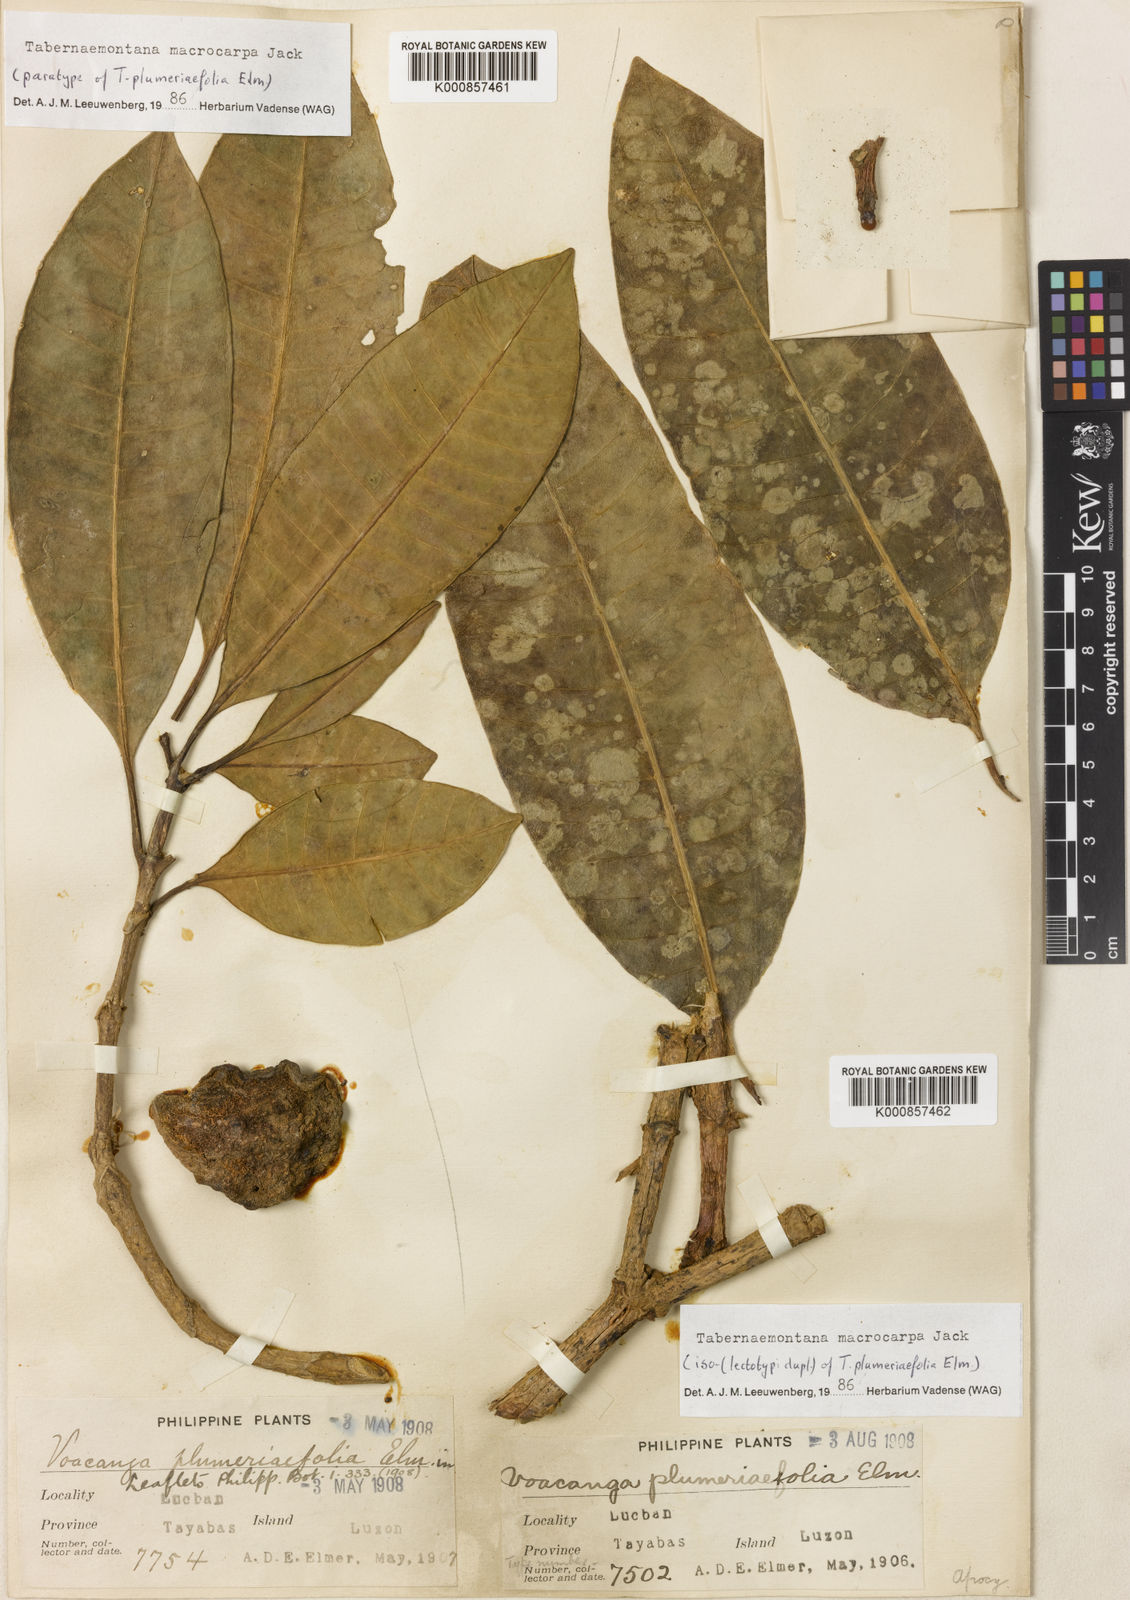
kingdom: Plantae
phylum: Tracheophyta
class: Magnoliopsida
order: Gentianales
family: Apocynaceae
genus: Tabernaemontana
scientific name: Tabernaemontana macrocarpa
